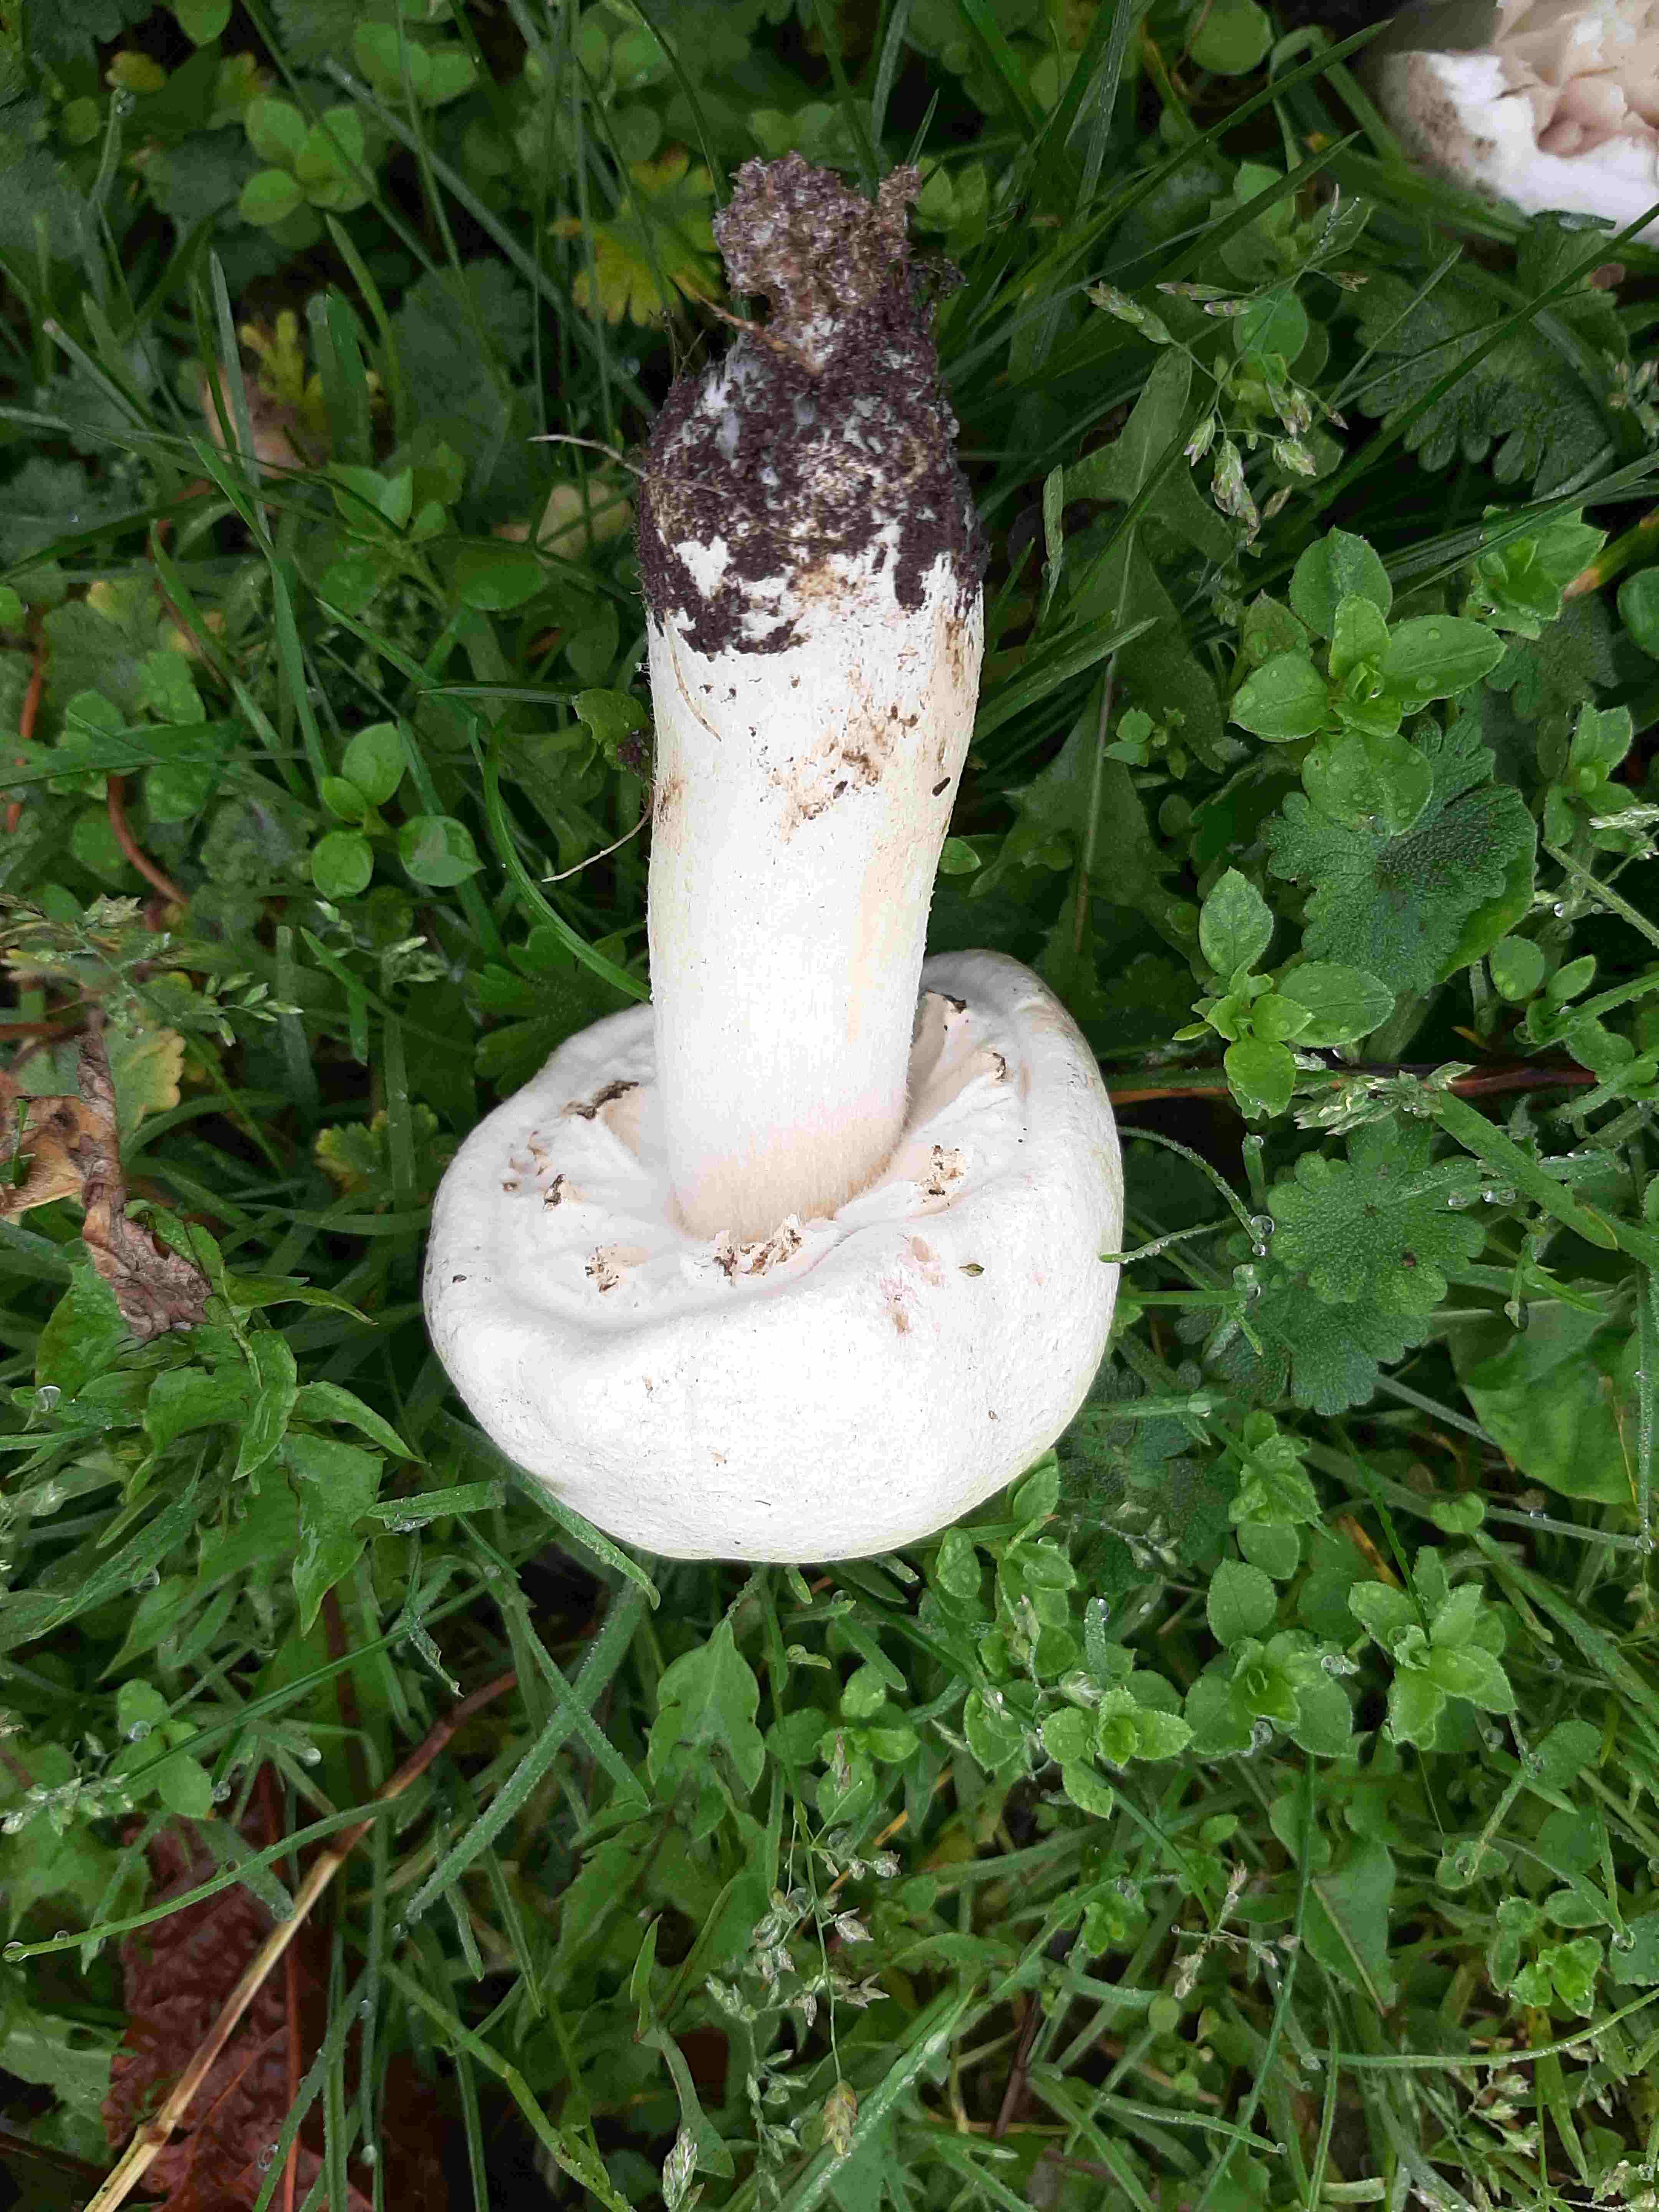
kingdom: Fungi
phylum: Basidiomycota
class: Agaricomycetes
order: Agaricales
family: Agaricaceae
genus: Agaricus
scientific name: Agaricus
